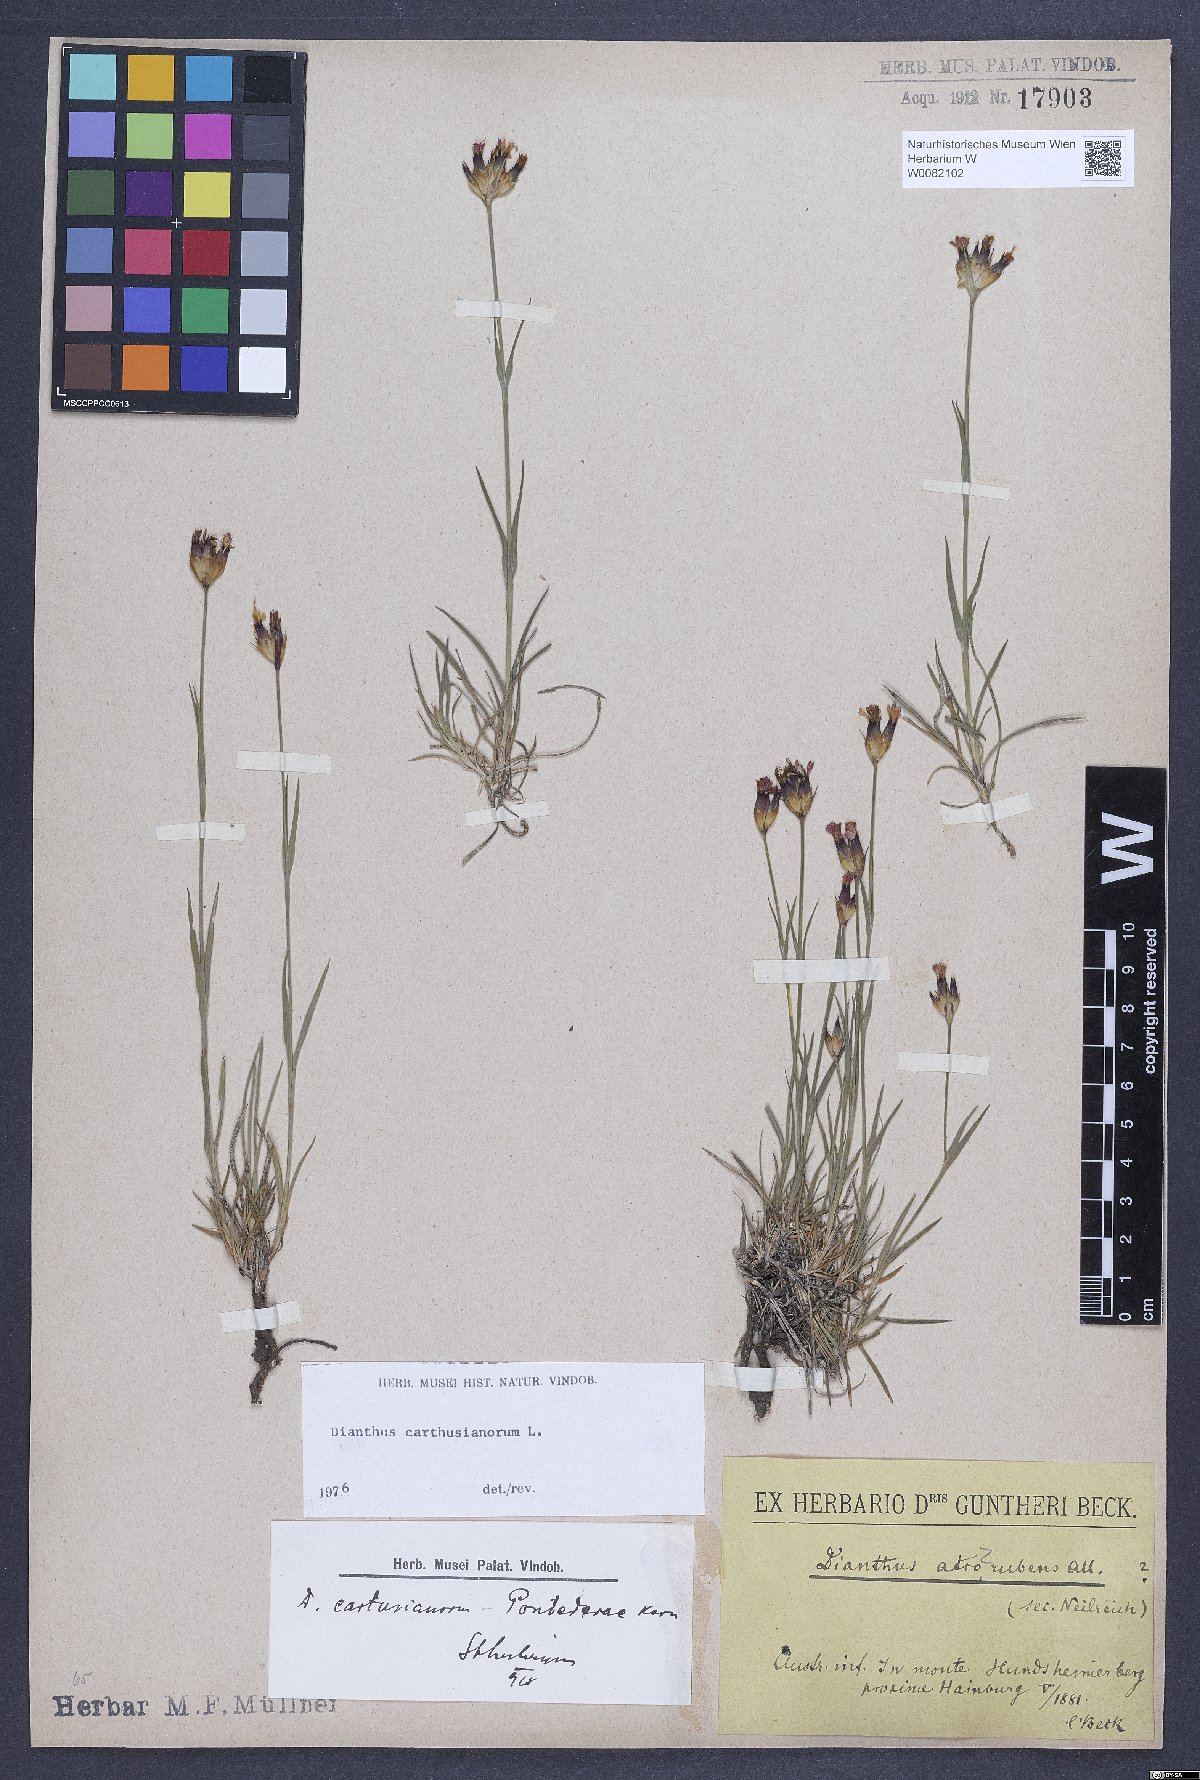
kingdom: Plantae
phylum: Tracheophyta
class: Magnoliopsida
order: Caryophyllales
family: Caryophyllaceae
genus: Dianthus
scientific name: Dianthus carthusianorum
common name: Carthusian pink
